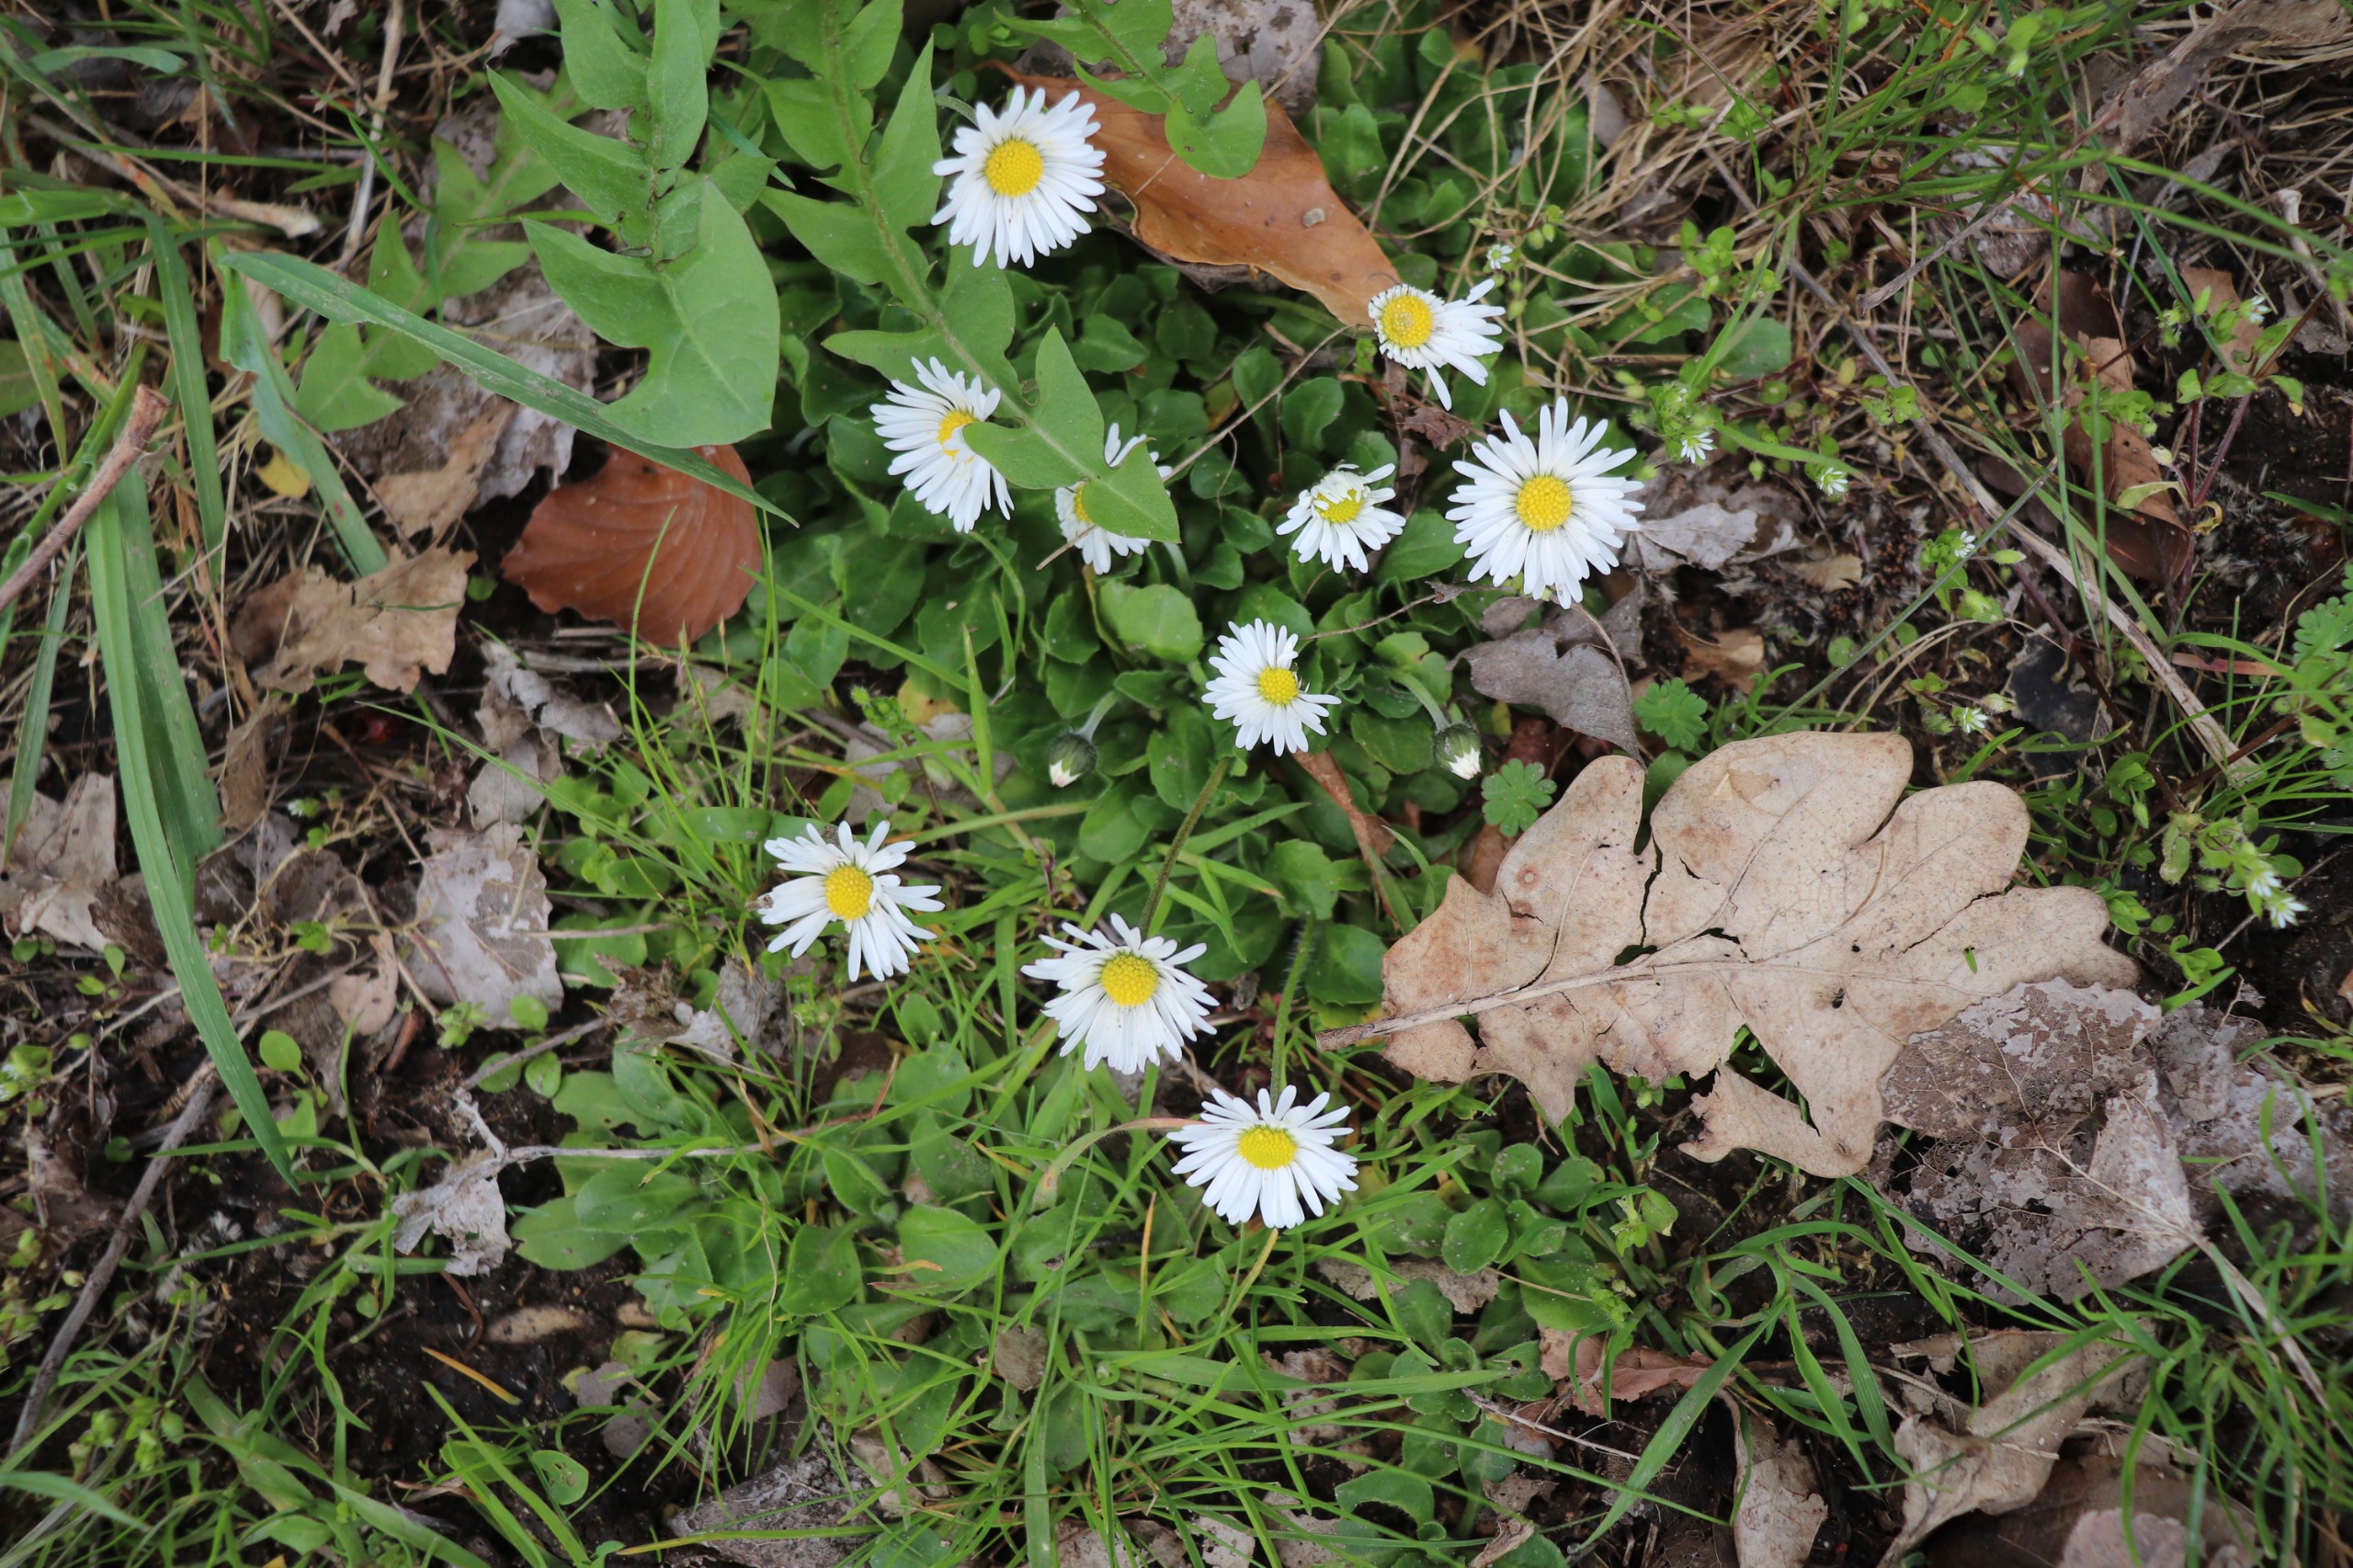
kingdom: Plantae
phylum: Tracheophyta
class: Magnoliopsida
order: Asterales
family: Asteraceae
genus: Bellis
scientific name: Bellis perennis
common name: Tusindfryd
